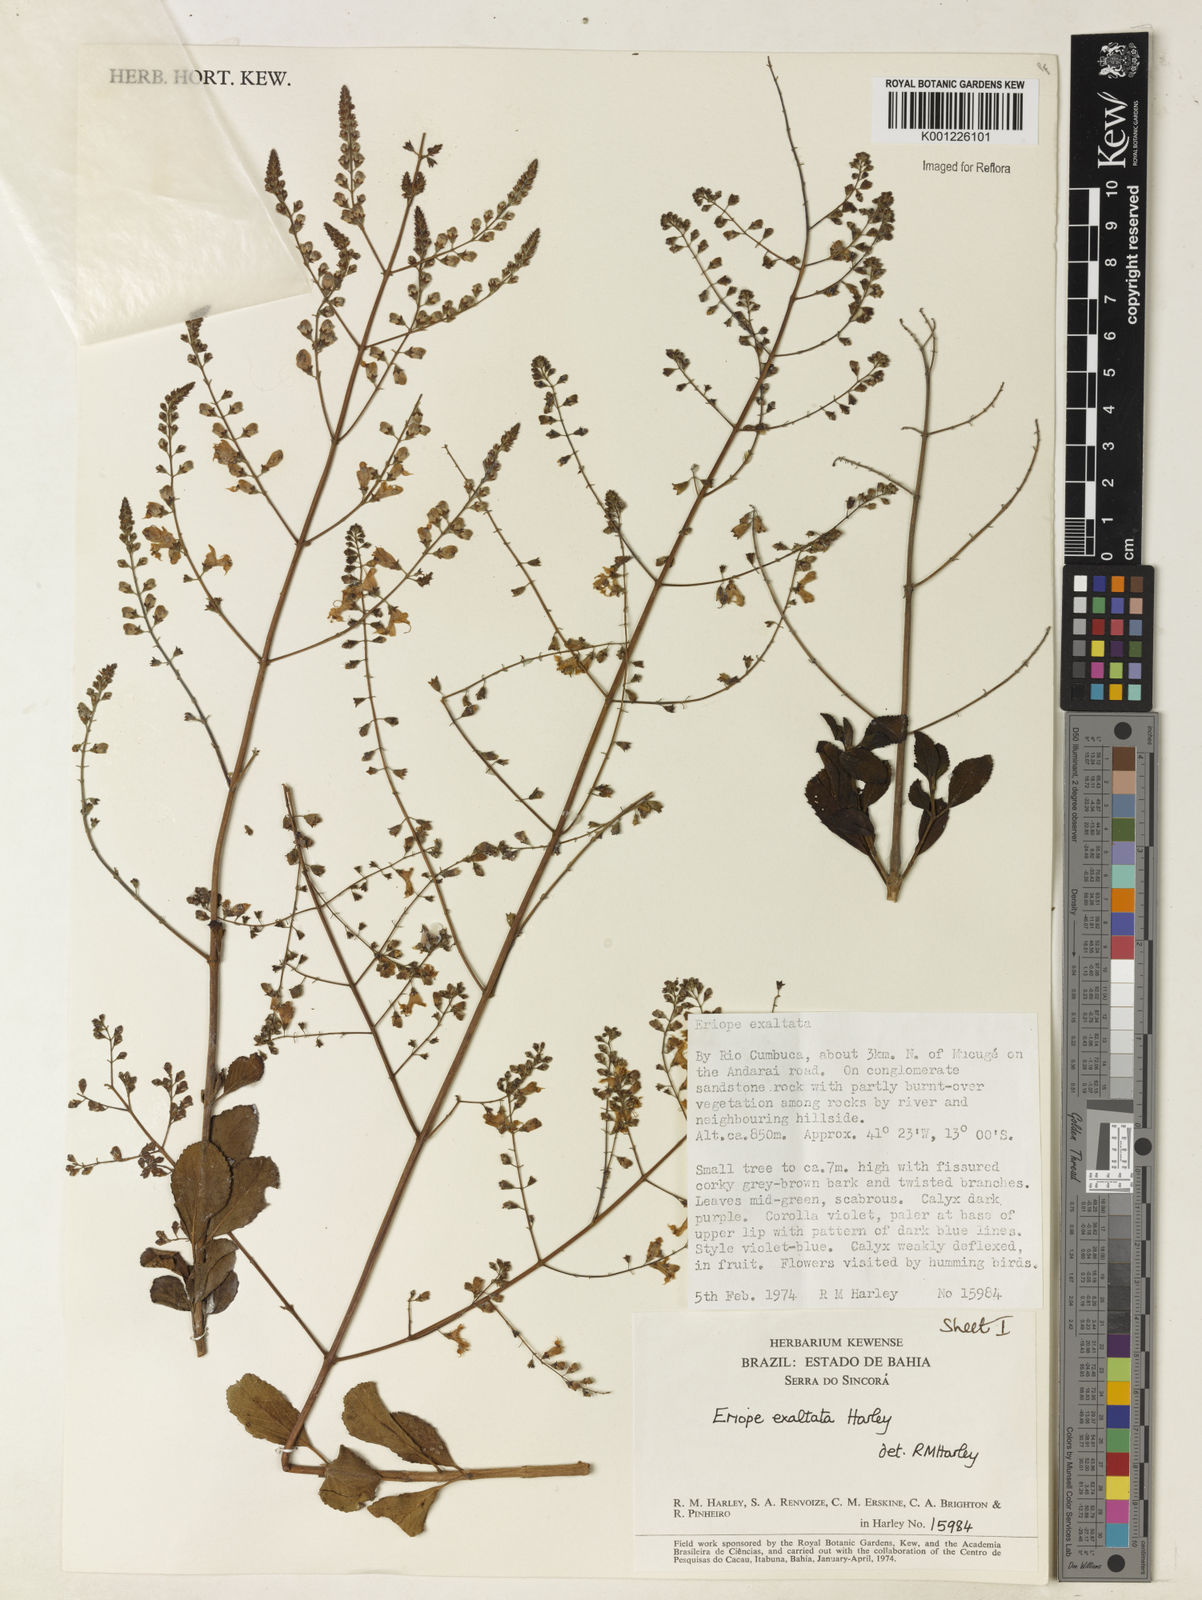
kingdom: Plantae
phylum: Tracheophyta
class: Magnoliopsida
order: Lamiales
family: Lamiaceae
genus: Eriope
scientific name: Eriope exaltata
